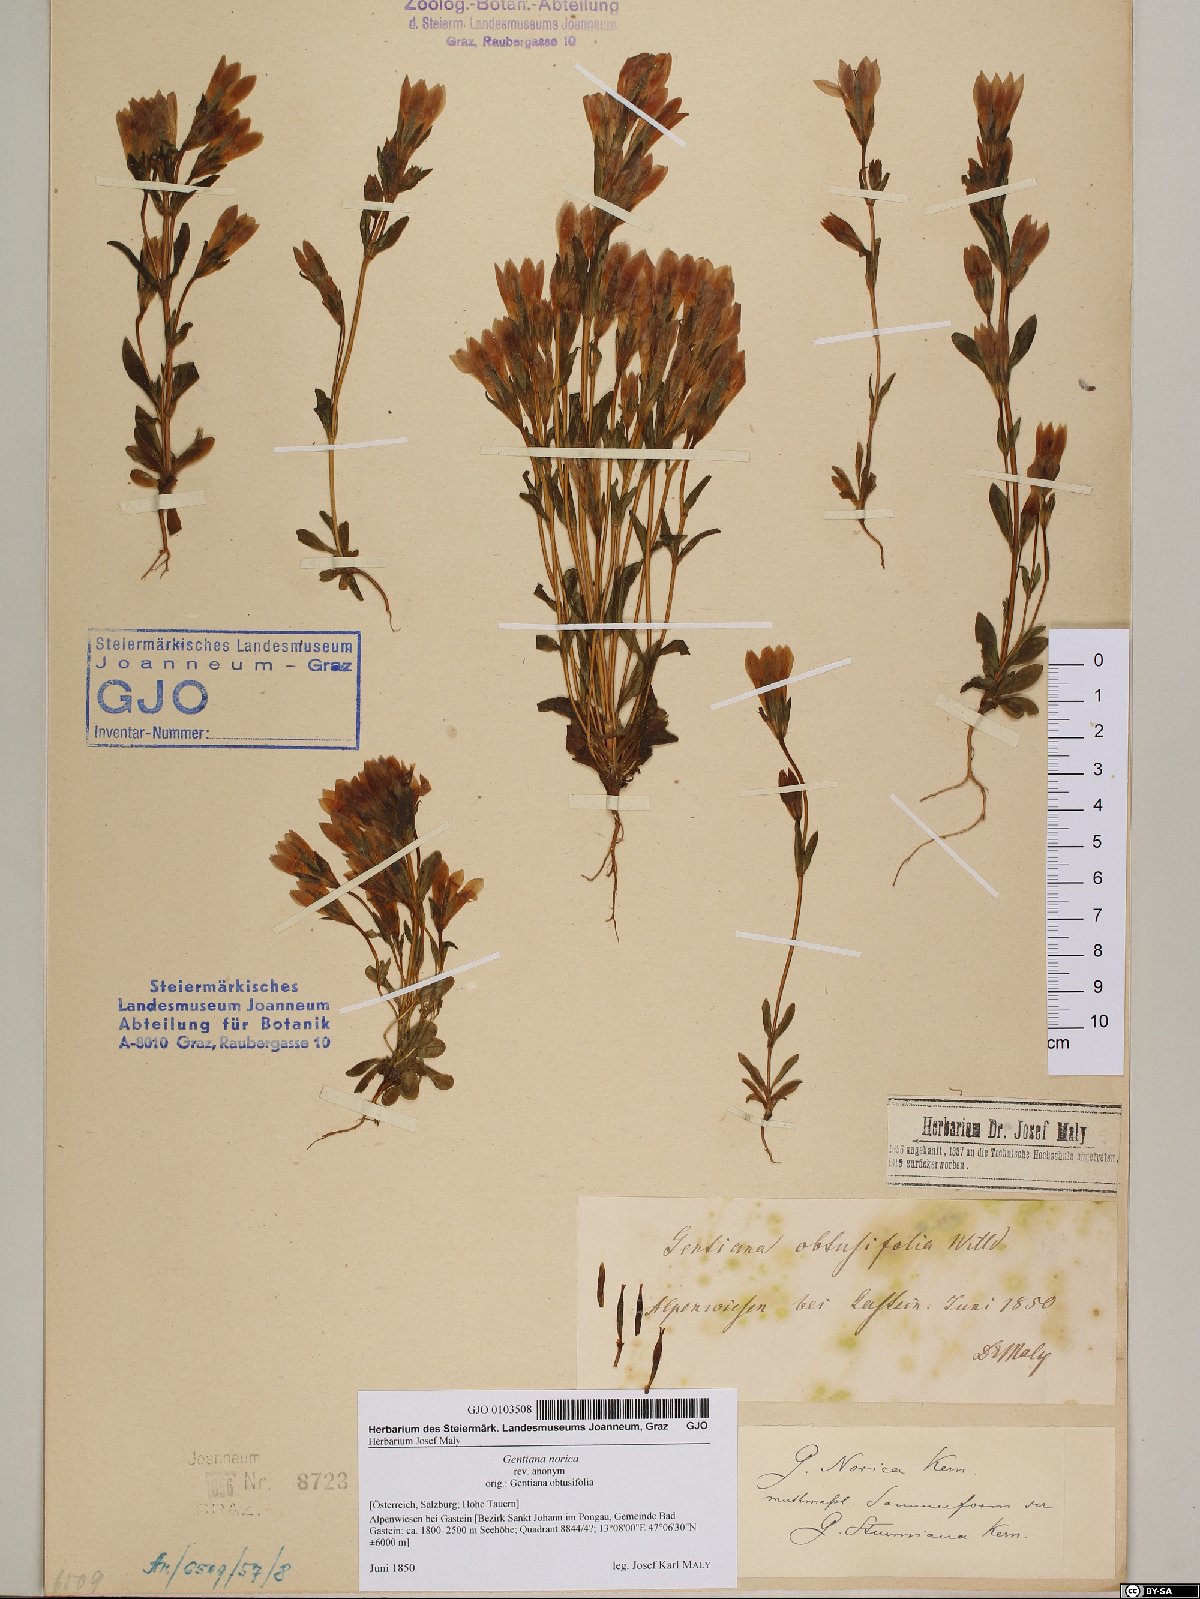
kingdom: Plantae
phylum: Tracheophyta
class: Magnoliopsida
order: Gentianales
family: Gentianaceae
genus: Gentianella
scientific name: Gentianella obtusifolia
